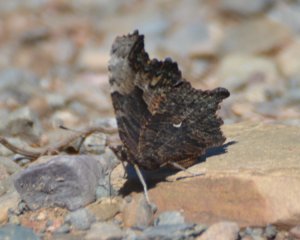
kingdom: Animalia
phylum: Arthropoda
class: Insecta
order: Lepidoptera
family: Nymphalidae
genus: Polygonia
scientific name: Polygonia progne
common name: Gray Comma
